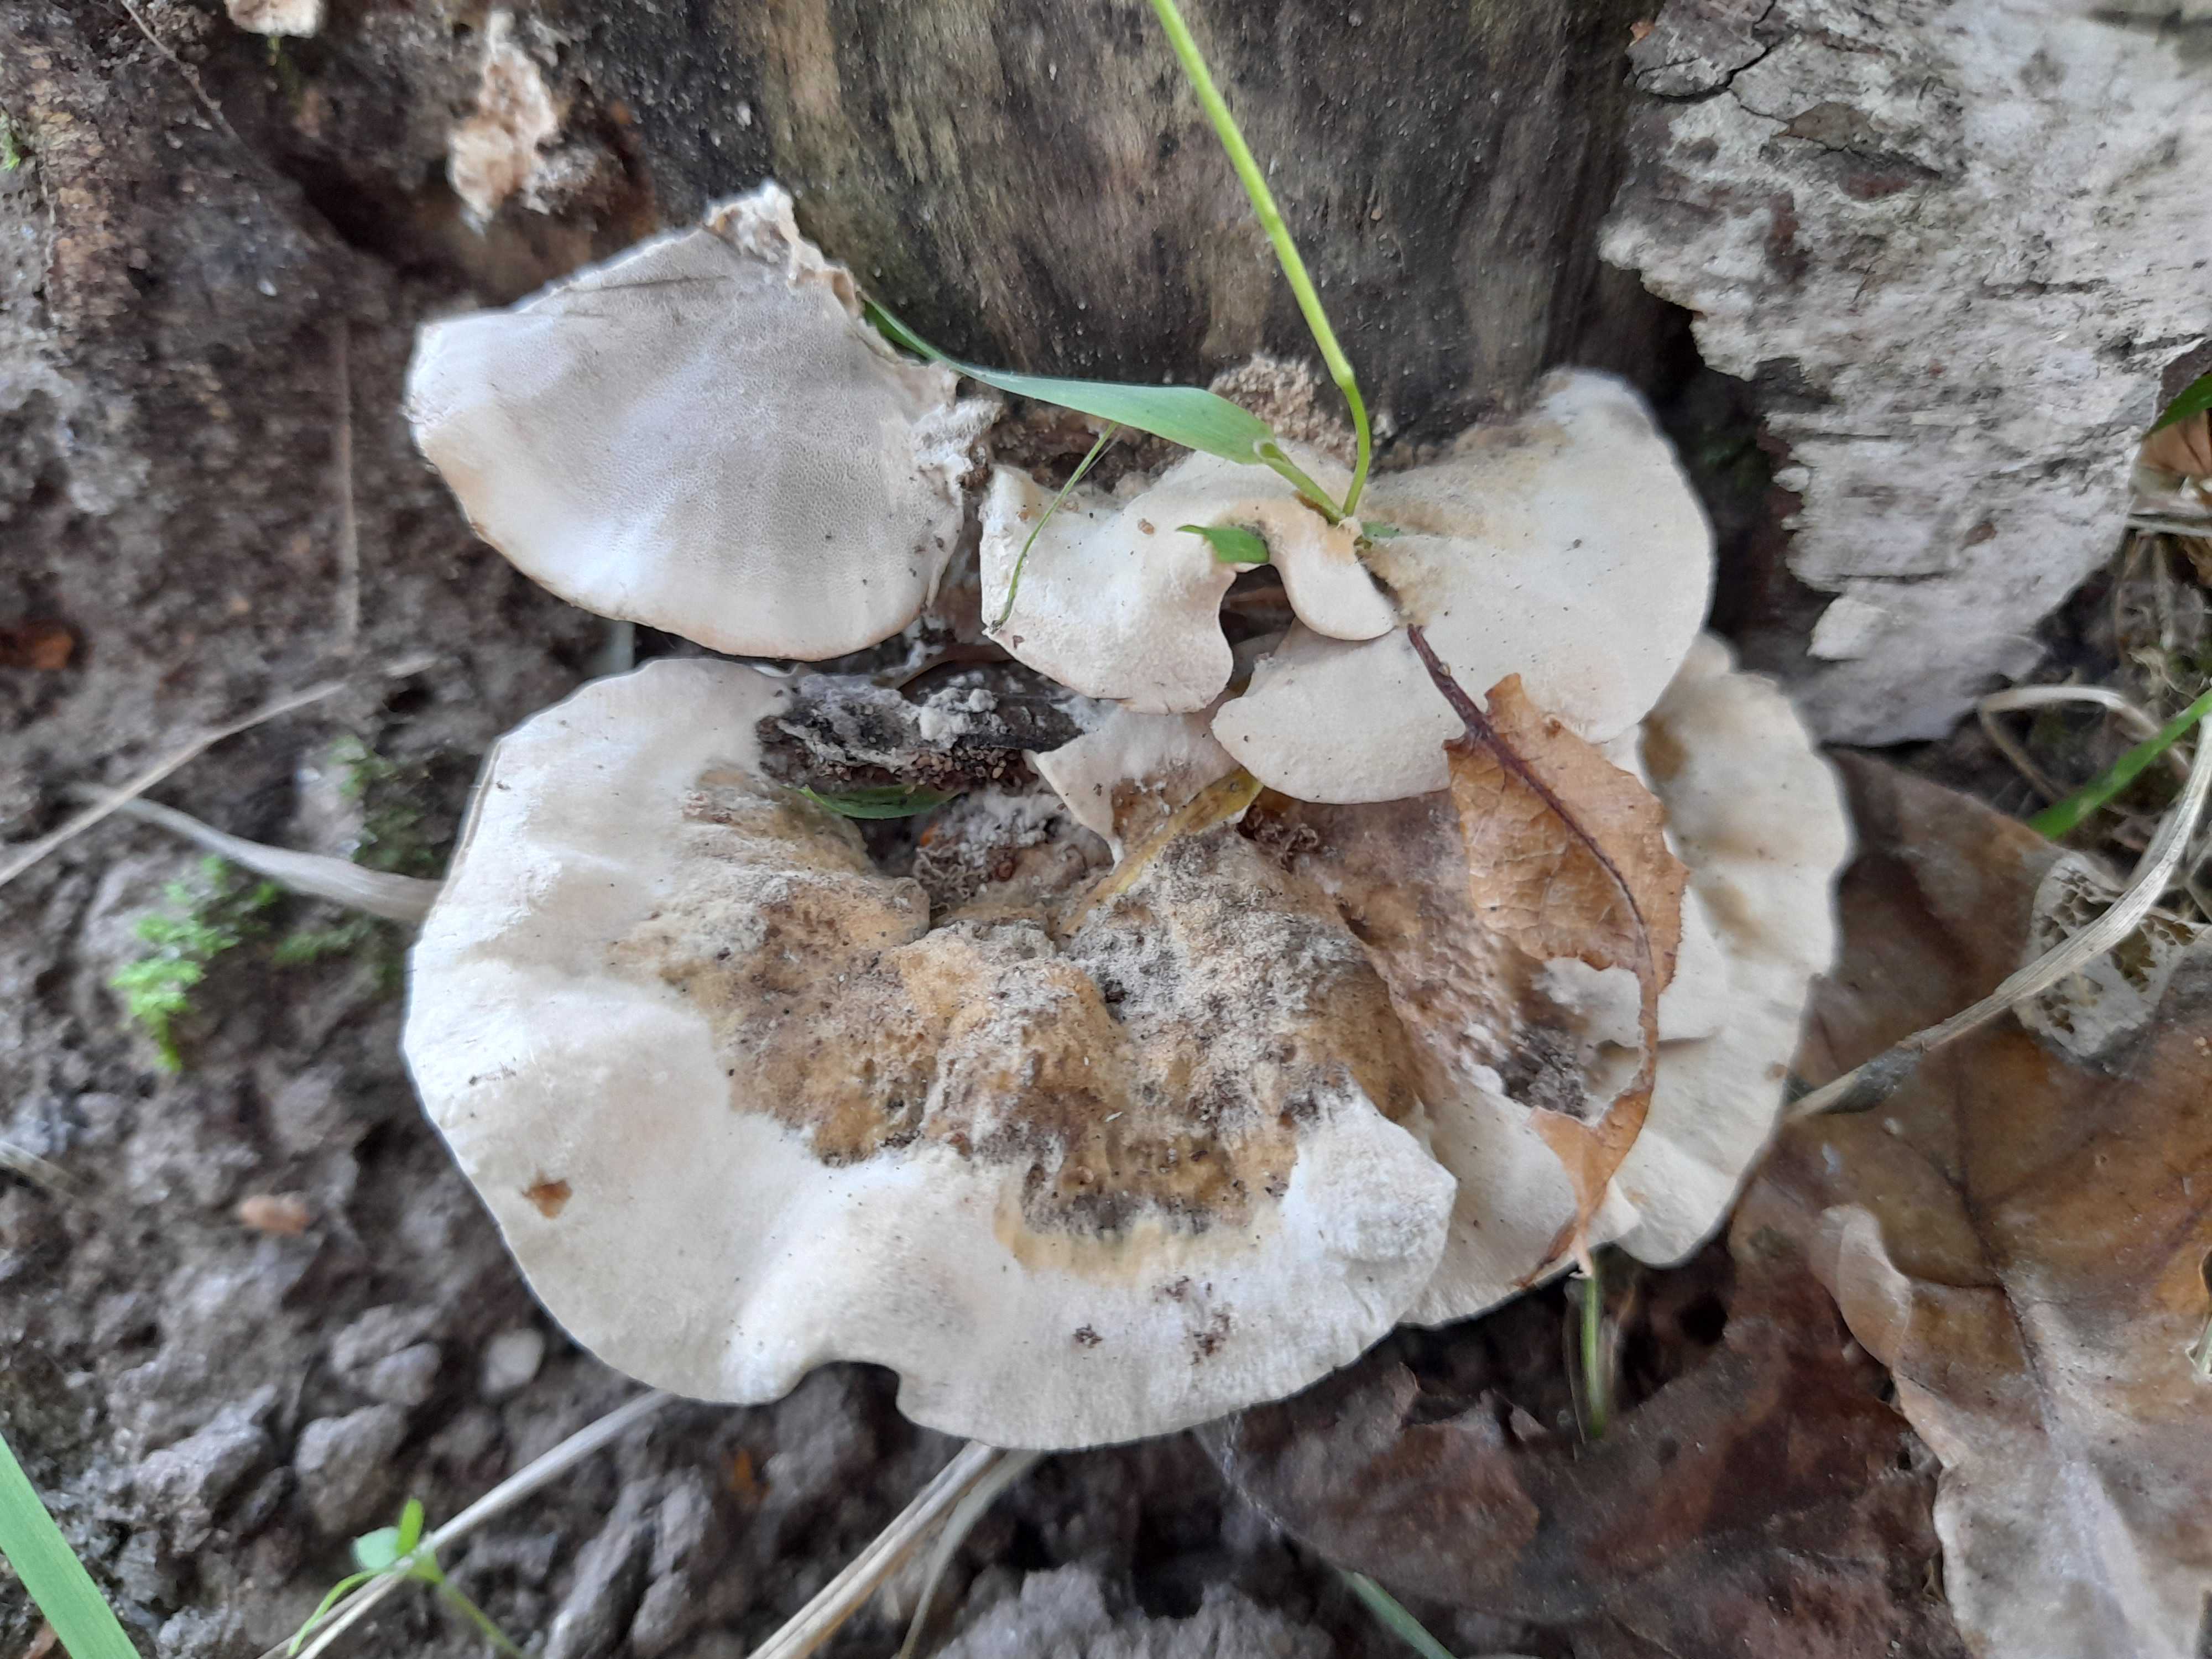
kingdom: Fungi
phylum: Basidiomycota
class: Agaricomycetes
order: Polyporales
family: Phanerochaetaceae
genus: Bjerkandera
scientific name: Bjerkandera adusta
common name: sveden sodporesvamp
